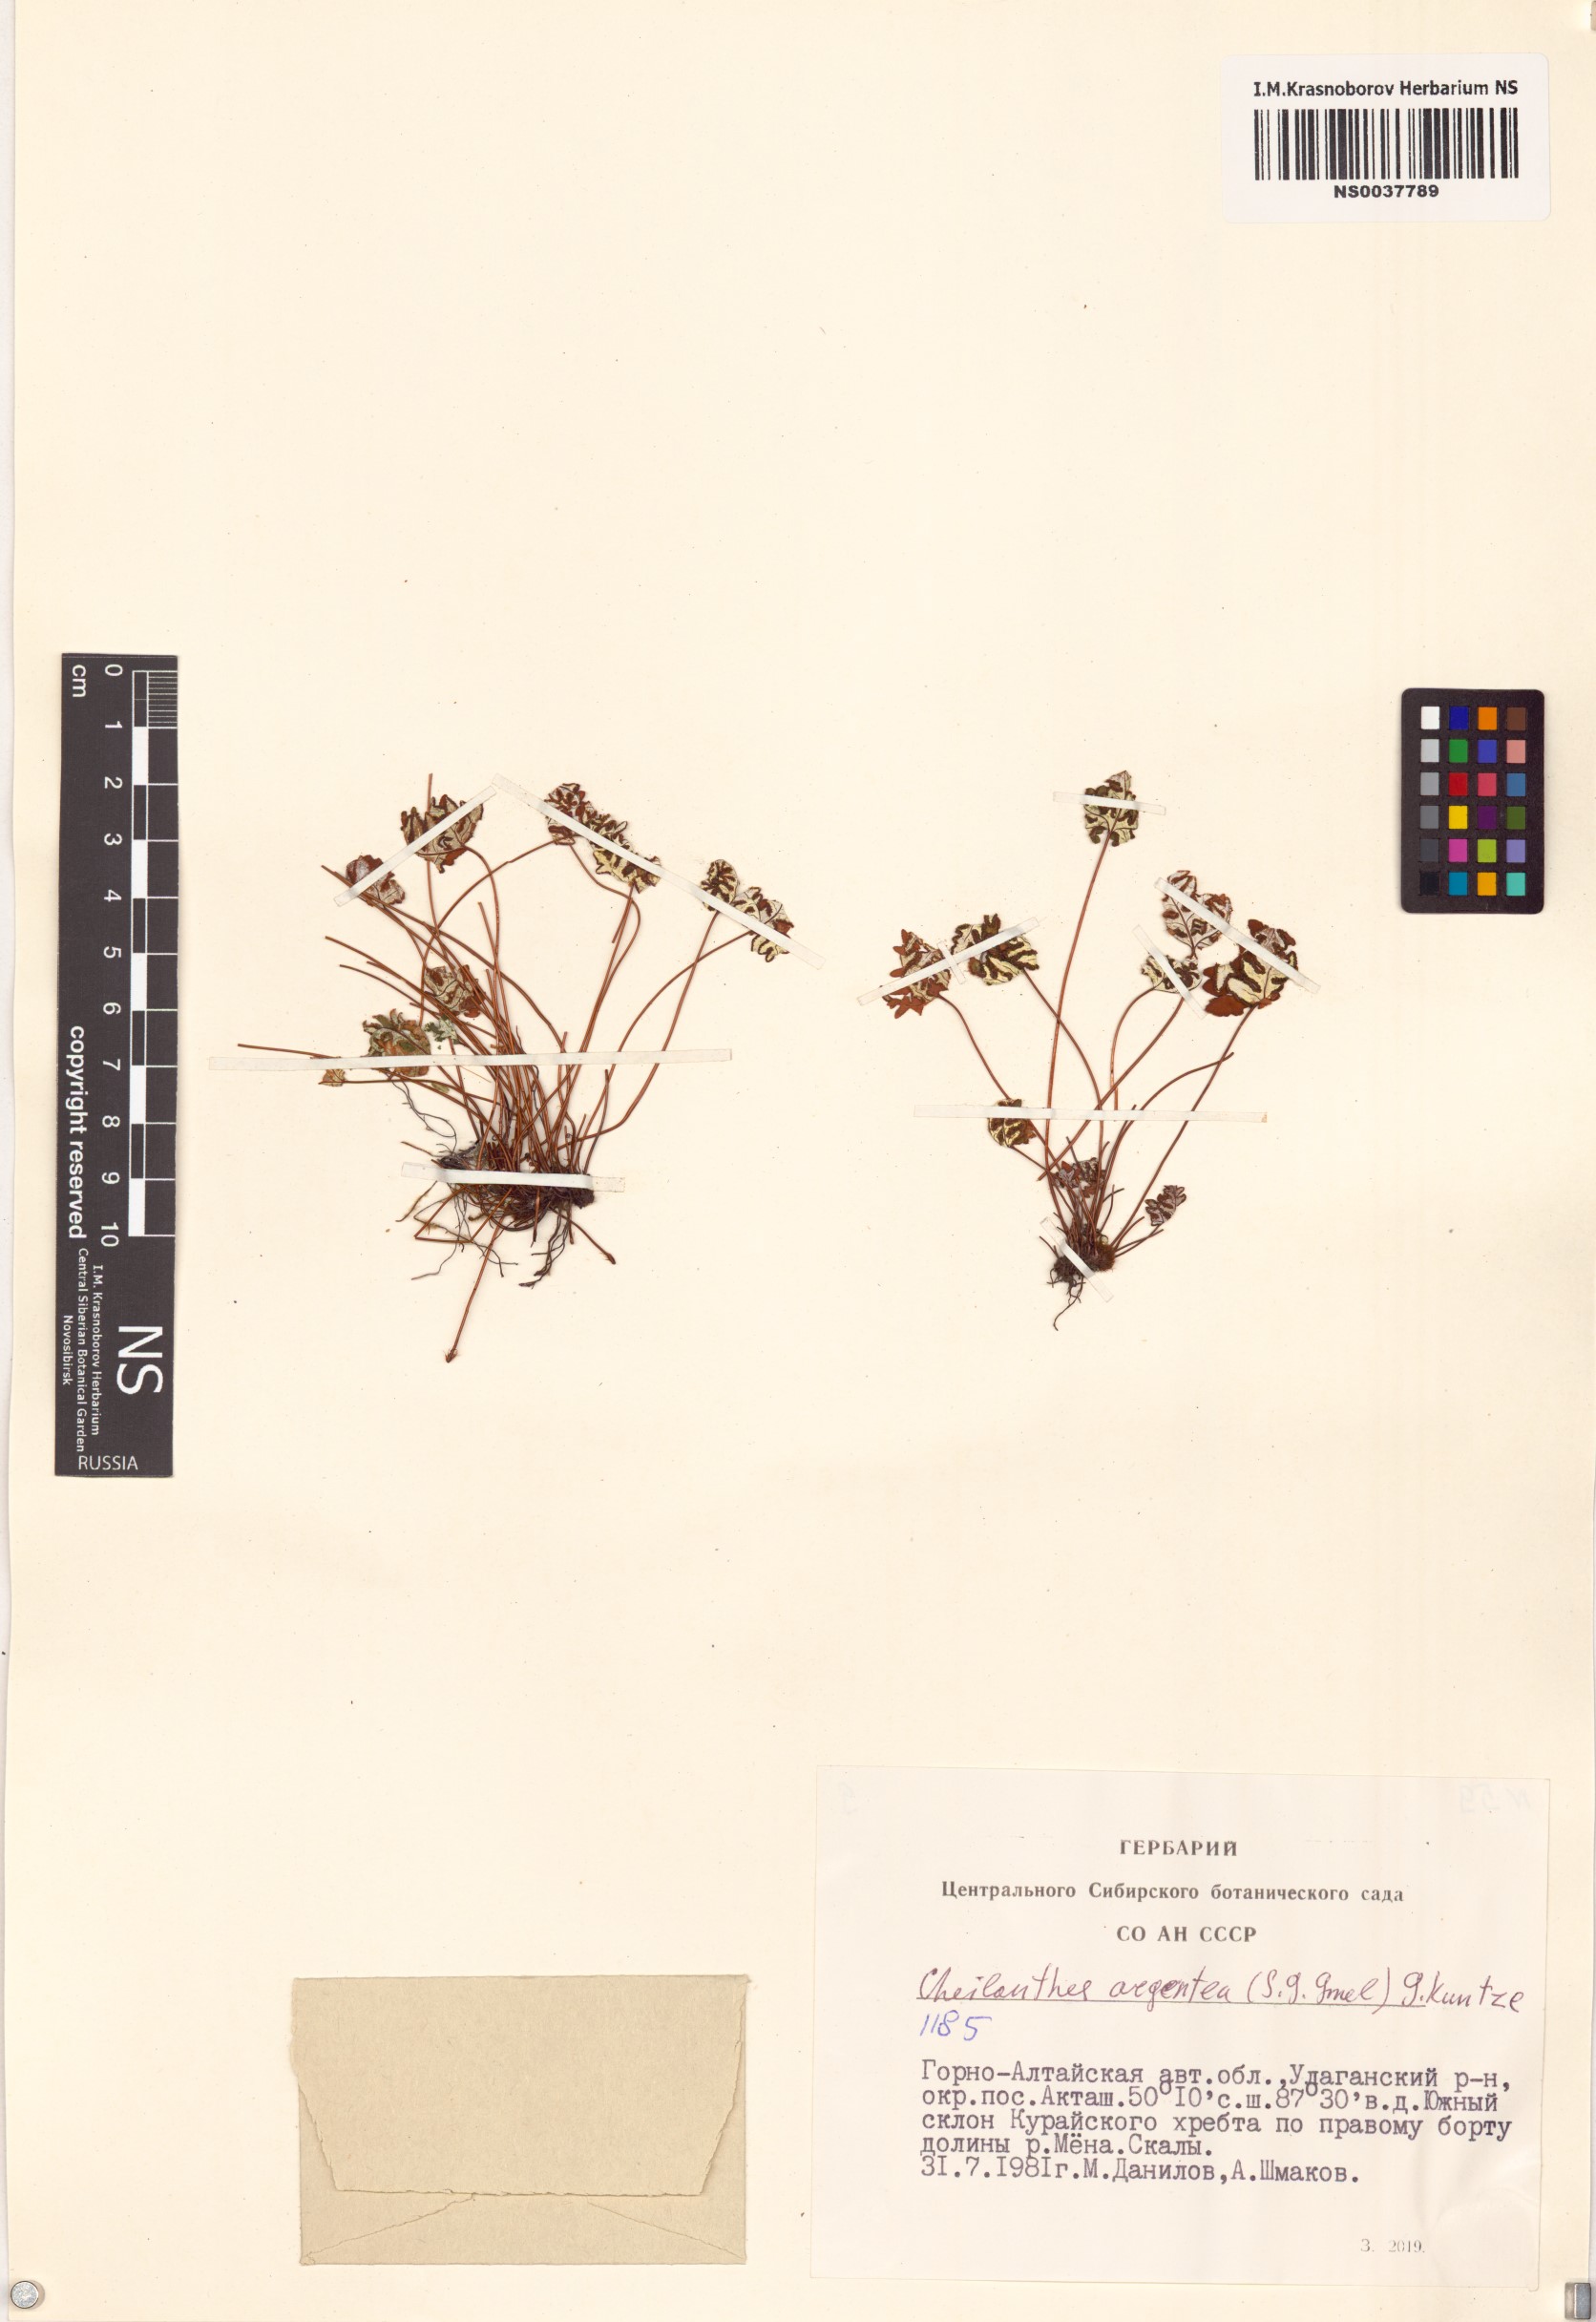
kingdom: Plantae
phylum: Tracheophyta
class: Polypodiopsida
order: Polypodiales
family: Pteridaceae
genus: Aleuritopteris
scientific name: Aleuritopteris argentea
